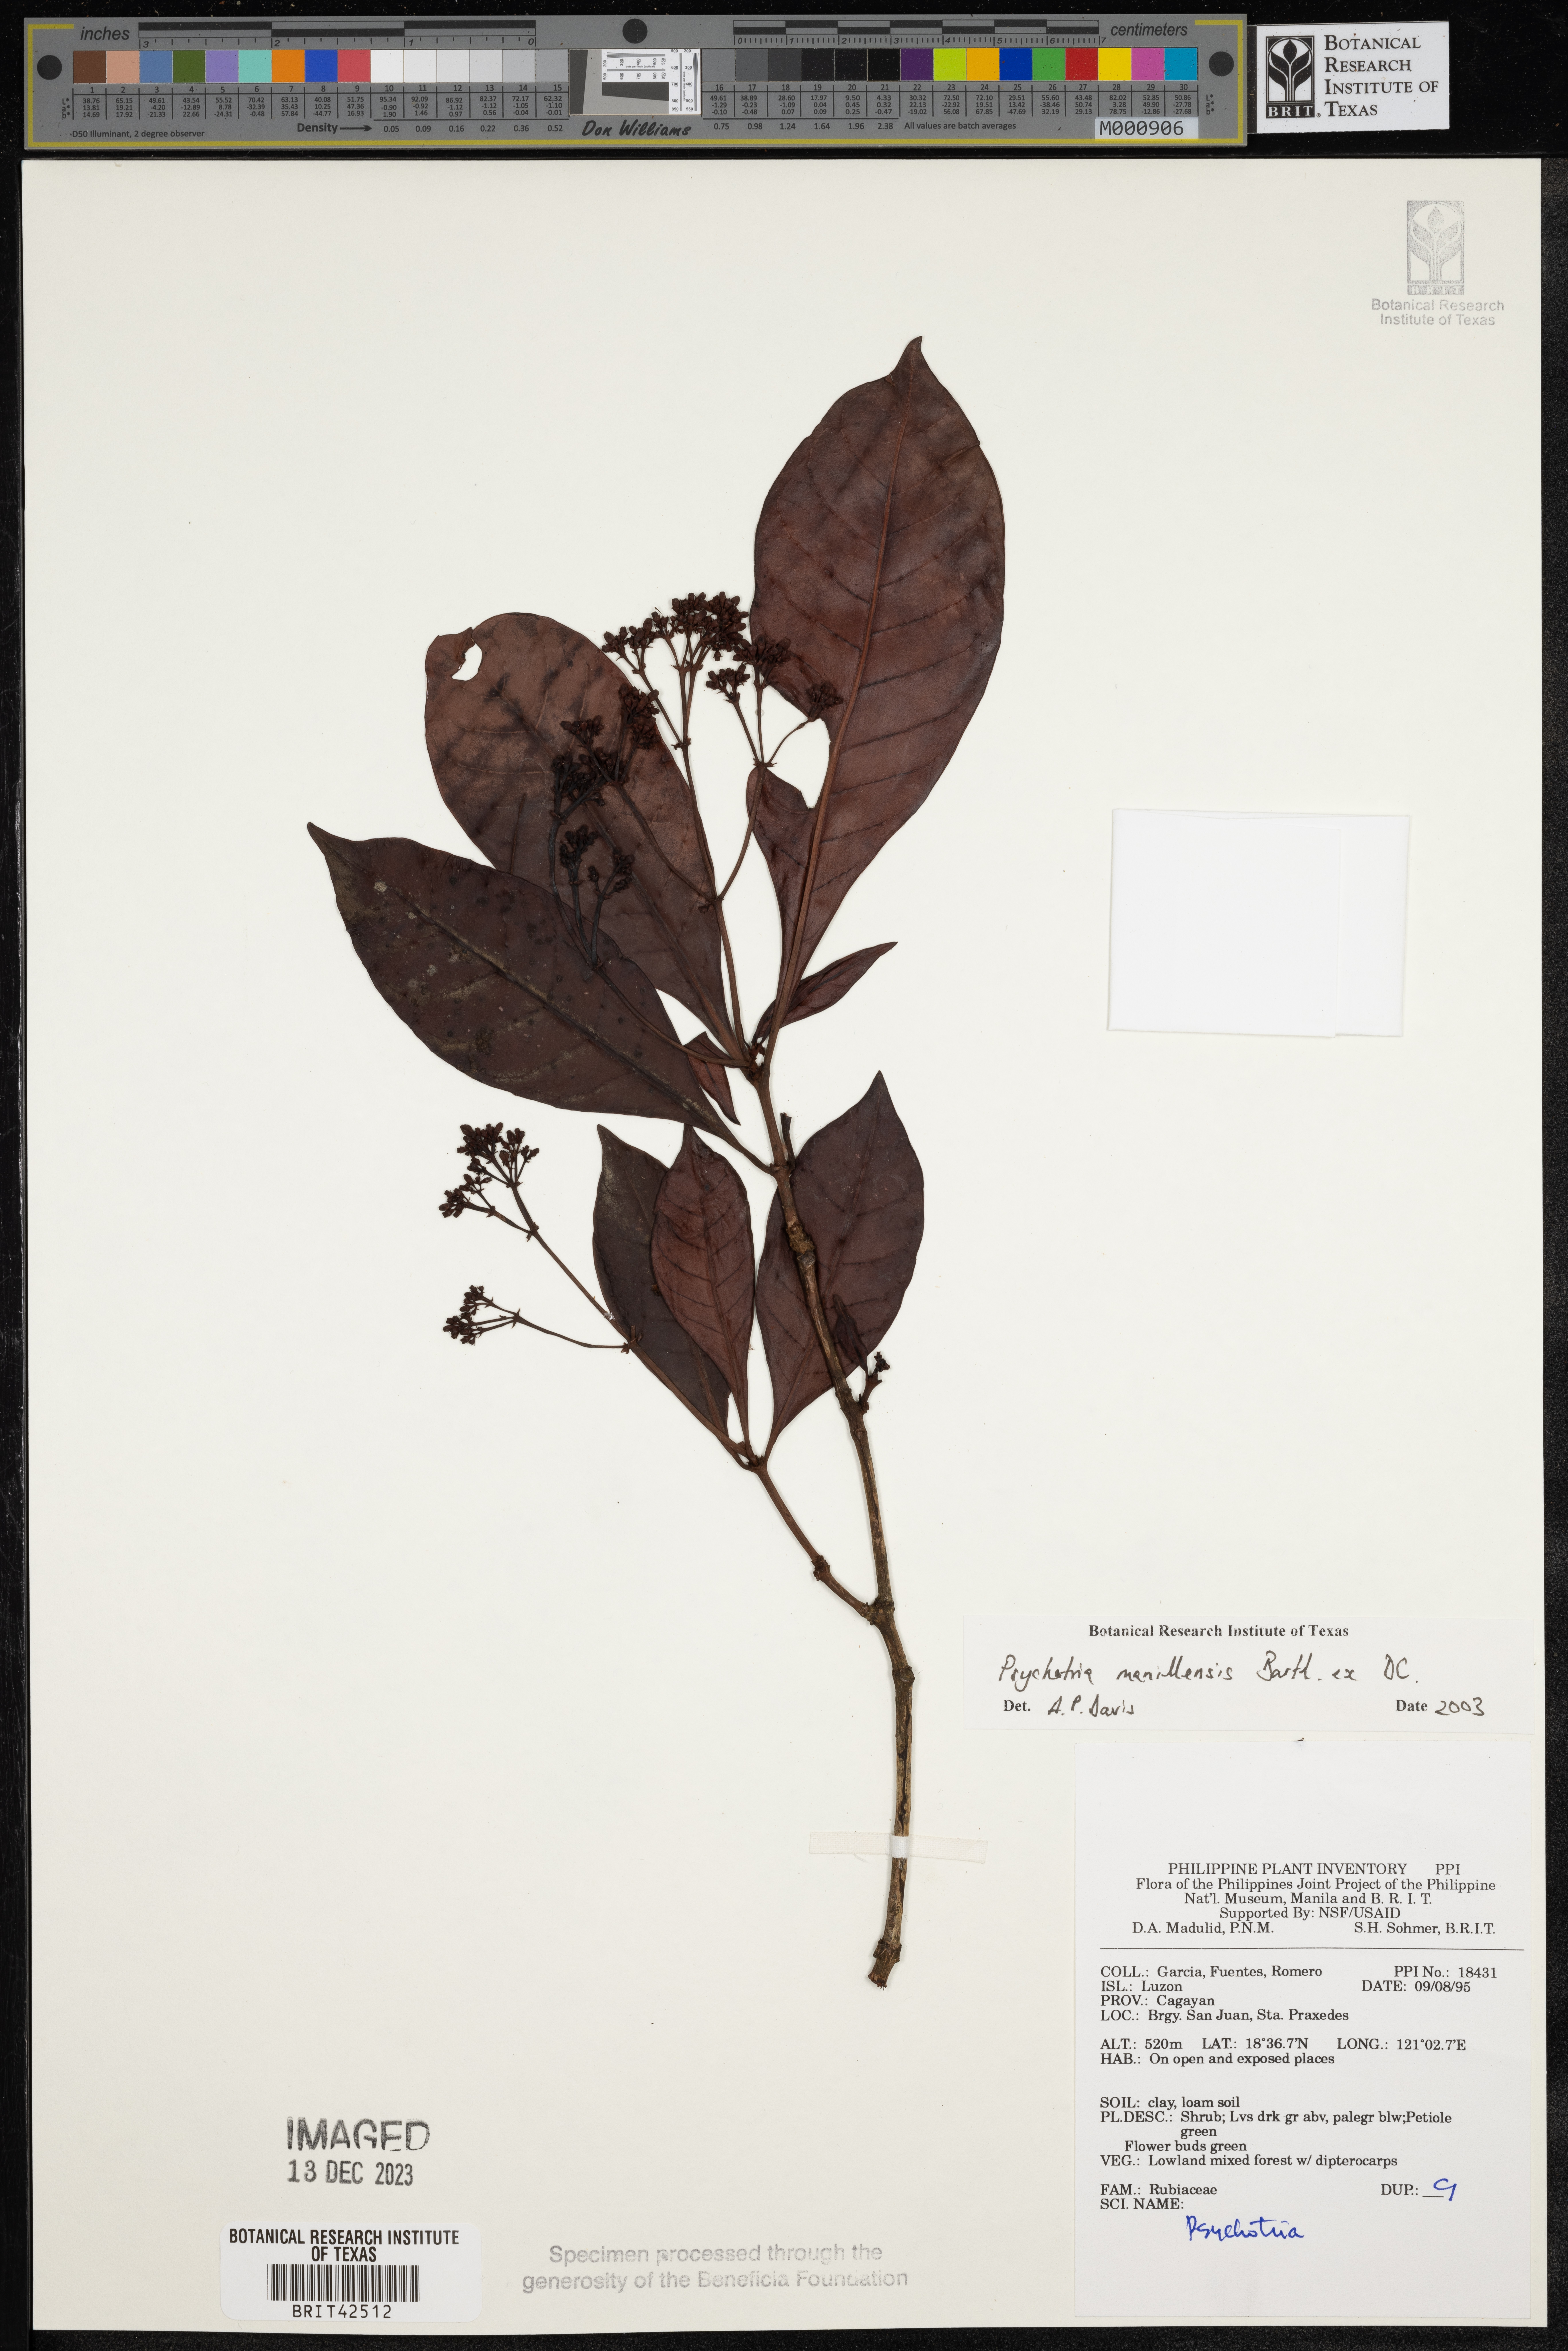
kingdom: Plantae
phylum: Tracheophyta
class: Magnoliopsida
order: Gentianales
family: Rubiaceae
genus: Psychotria
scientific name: Psychotria manillensis
